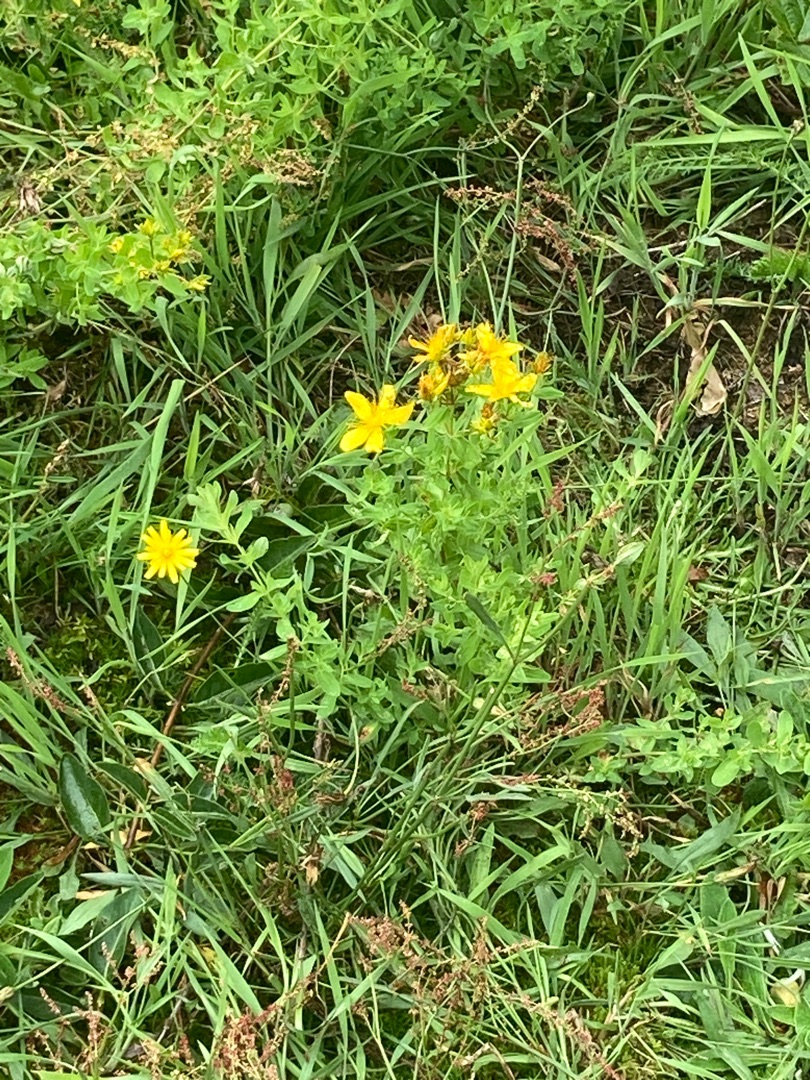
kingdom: Plantae
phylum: Tracheophyta
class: Magnoliopsida
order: Malpighiales
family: Hypericaceae
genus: Hypericum
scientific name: Hypericum perforatum
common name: Prikbladet perikon
